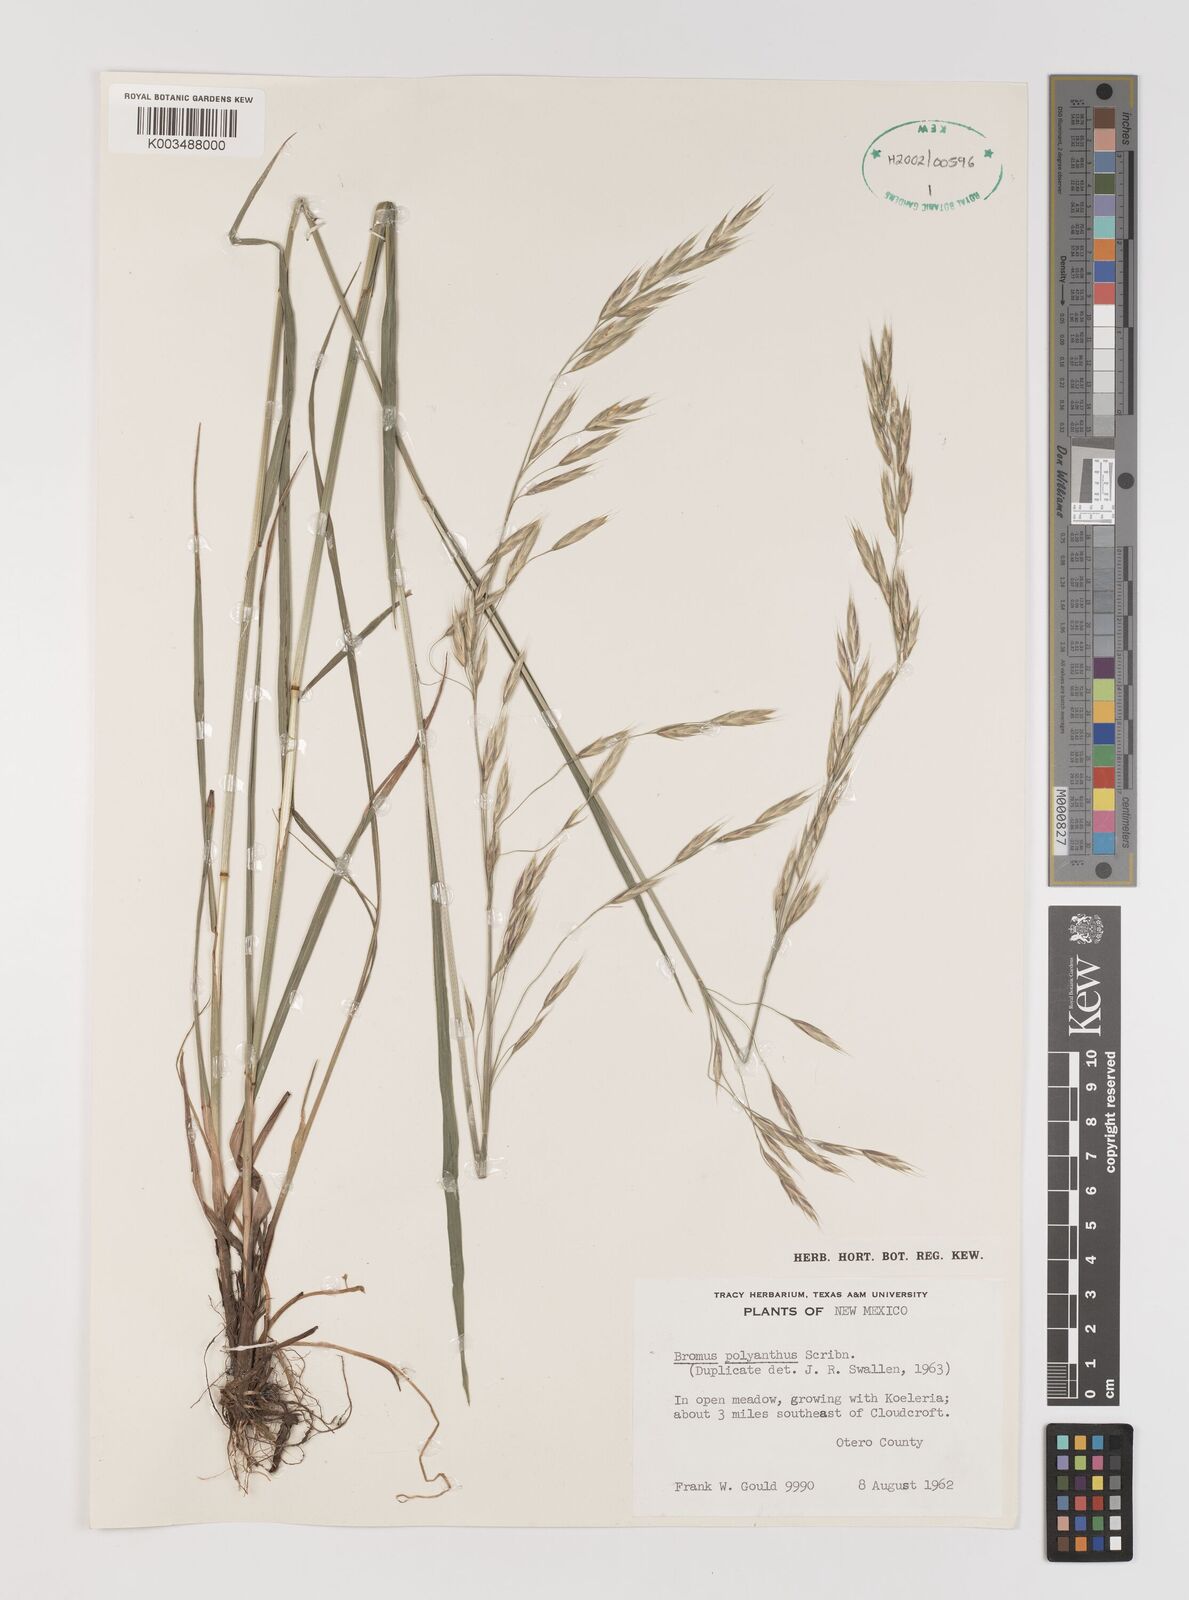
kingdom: Plantae
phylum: Tracheophyta
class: Liliopsida
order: Poales
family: Poaceae
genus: Bromus
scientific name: Bromus polyanthus
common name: Great basin brome
